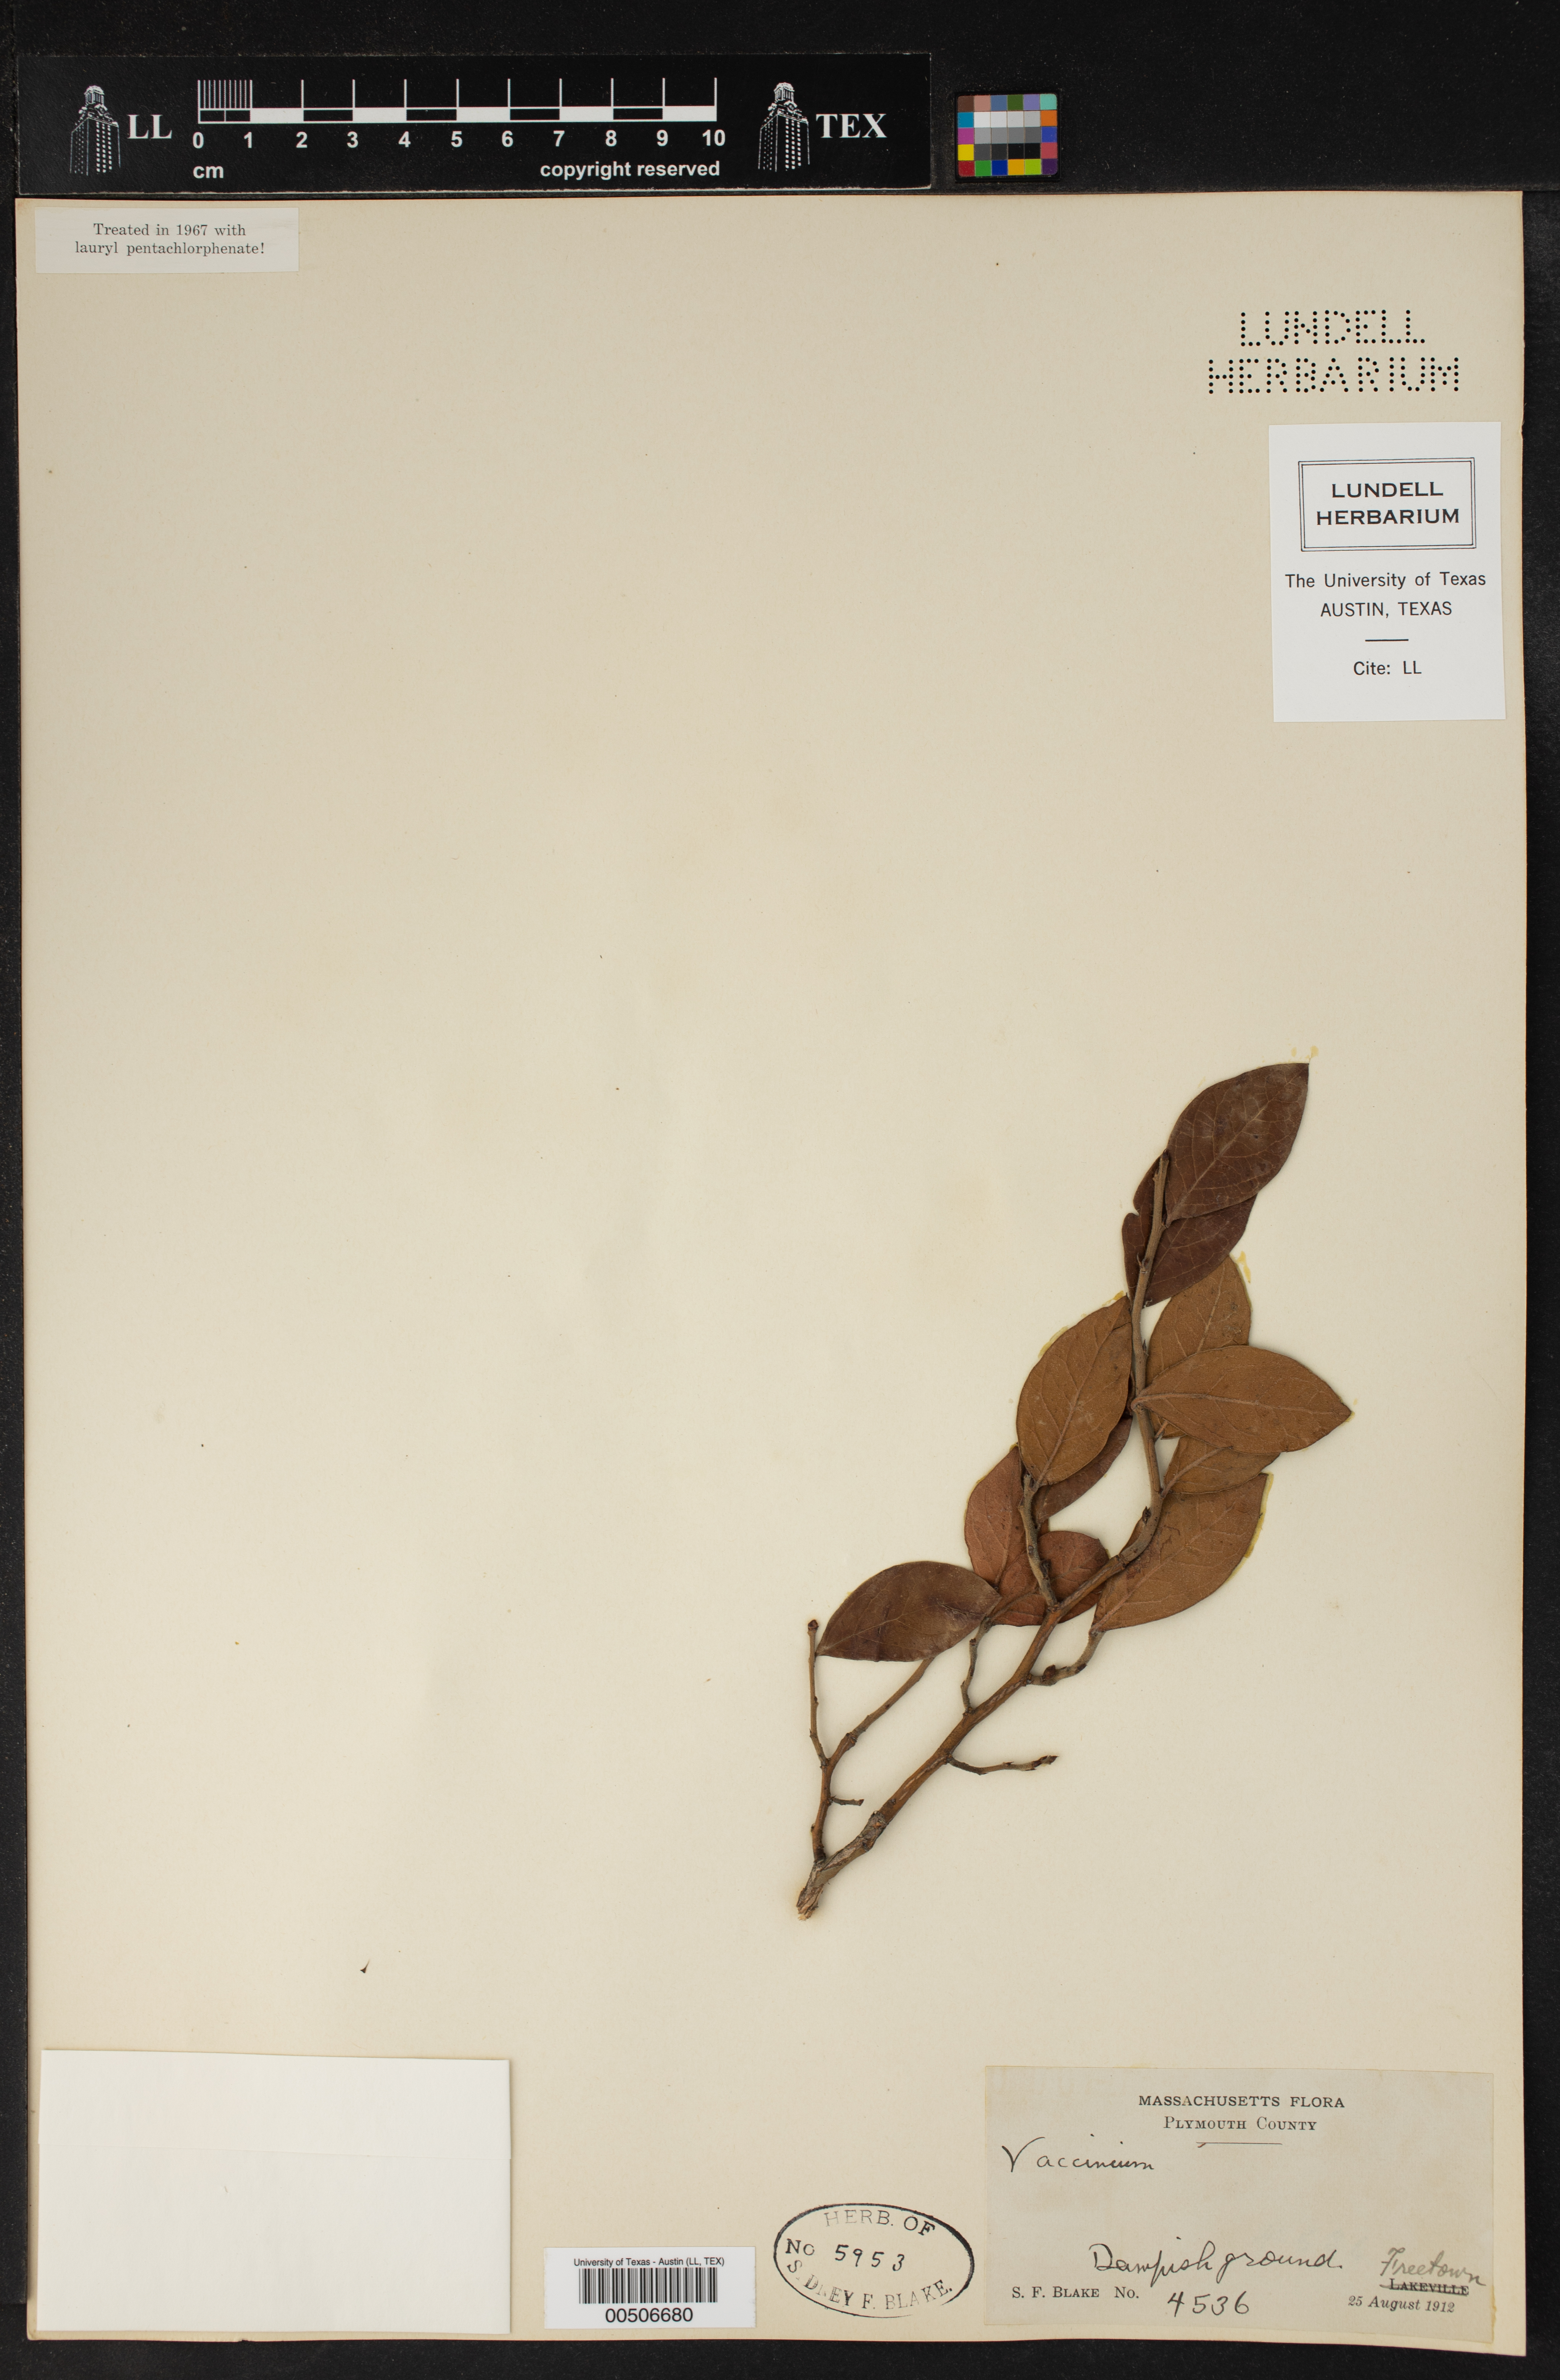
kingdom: Plantae
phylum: Tracheophyta
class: Magnoliopsida
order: Ericales
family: Ericaceae
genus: Vaccinium
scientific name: Vaccinium
